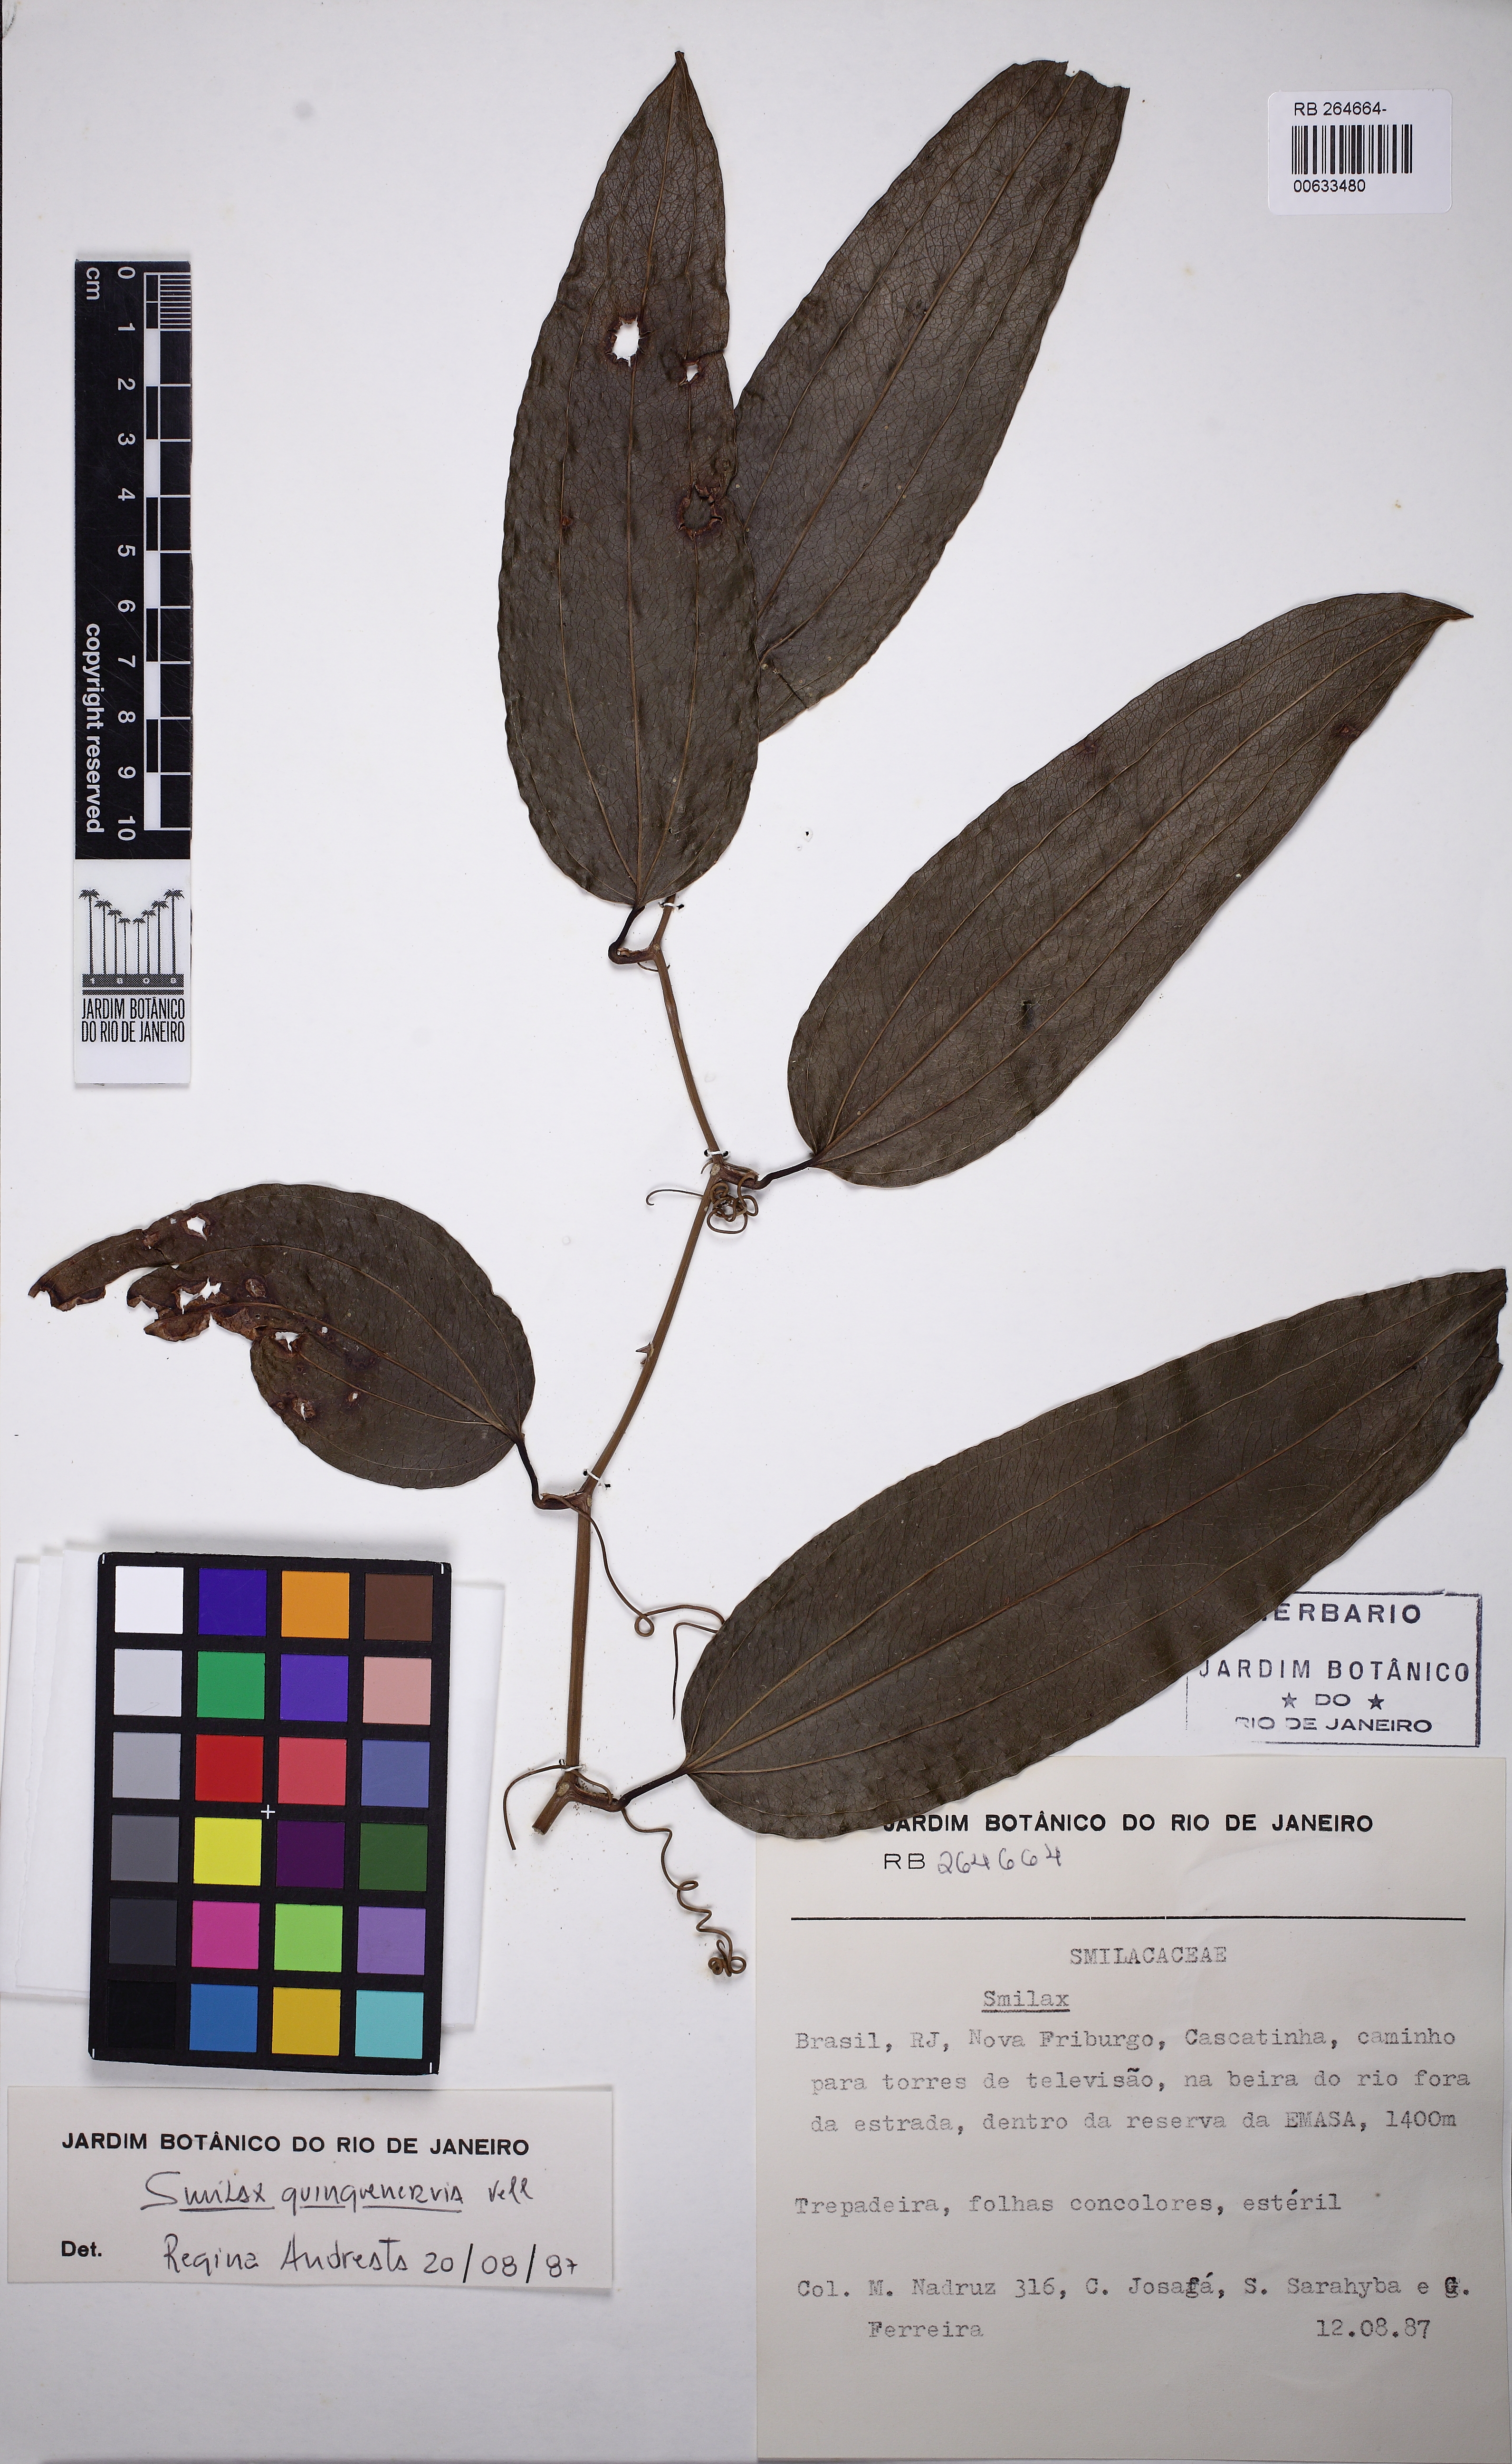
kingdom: Plantae
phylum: Tracheophyta
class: Liliopsida
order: Liliales
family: Smilacaceae
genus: Smilax
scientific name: Smilax quinquenervia
